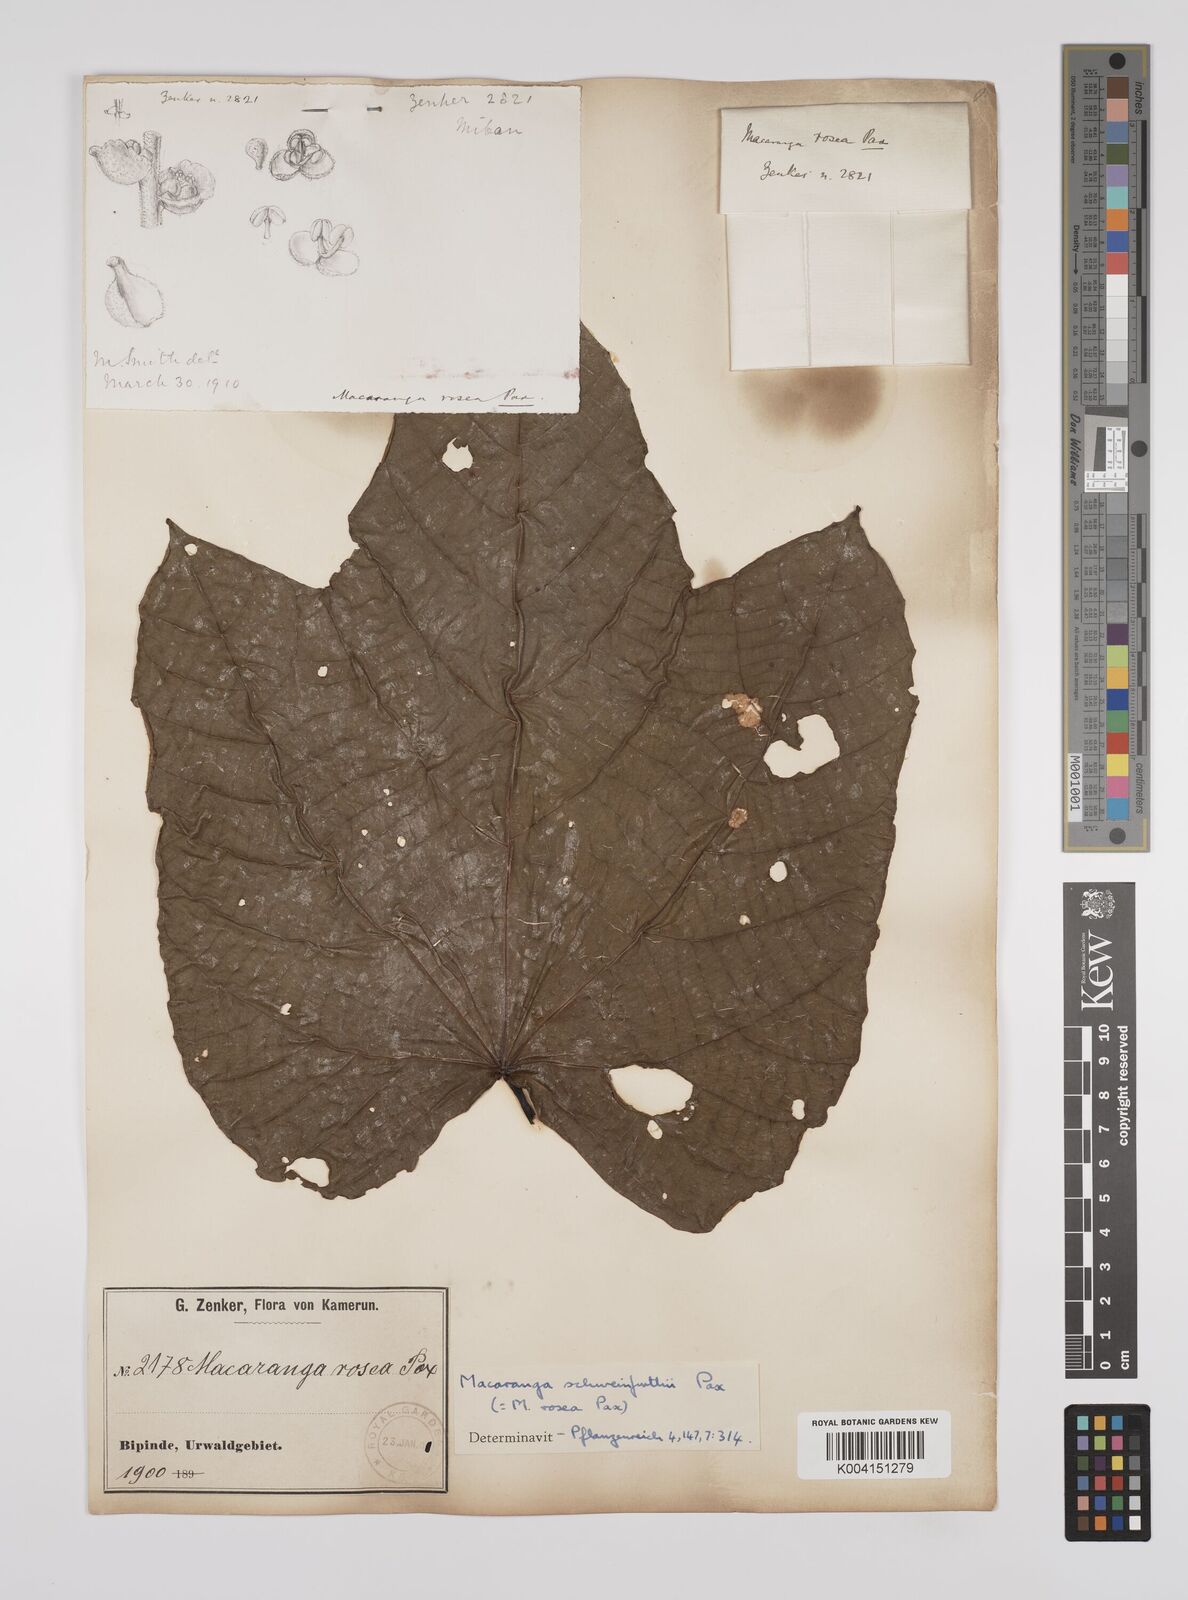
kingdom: Plantae
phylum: Tracheophyta
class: Magnoliopsida
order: Malpighiales
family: Euphorbiaceae
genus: Macaranga
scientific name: Macaranga schweinfurthii
